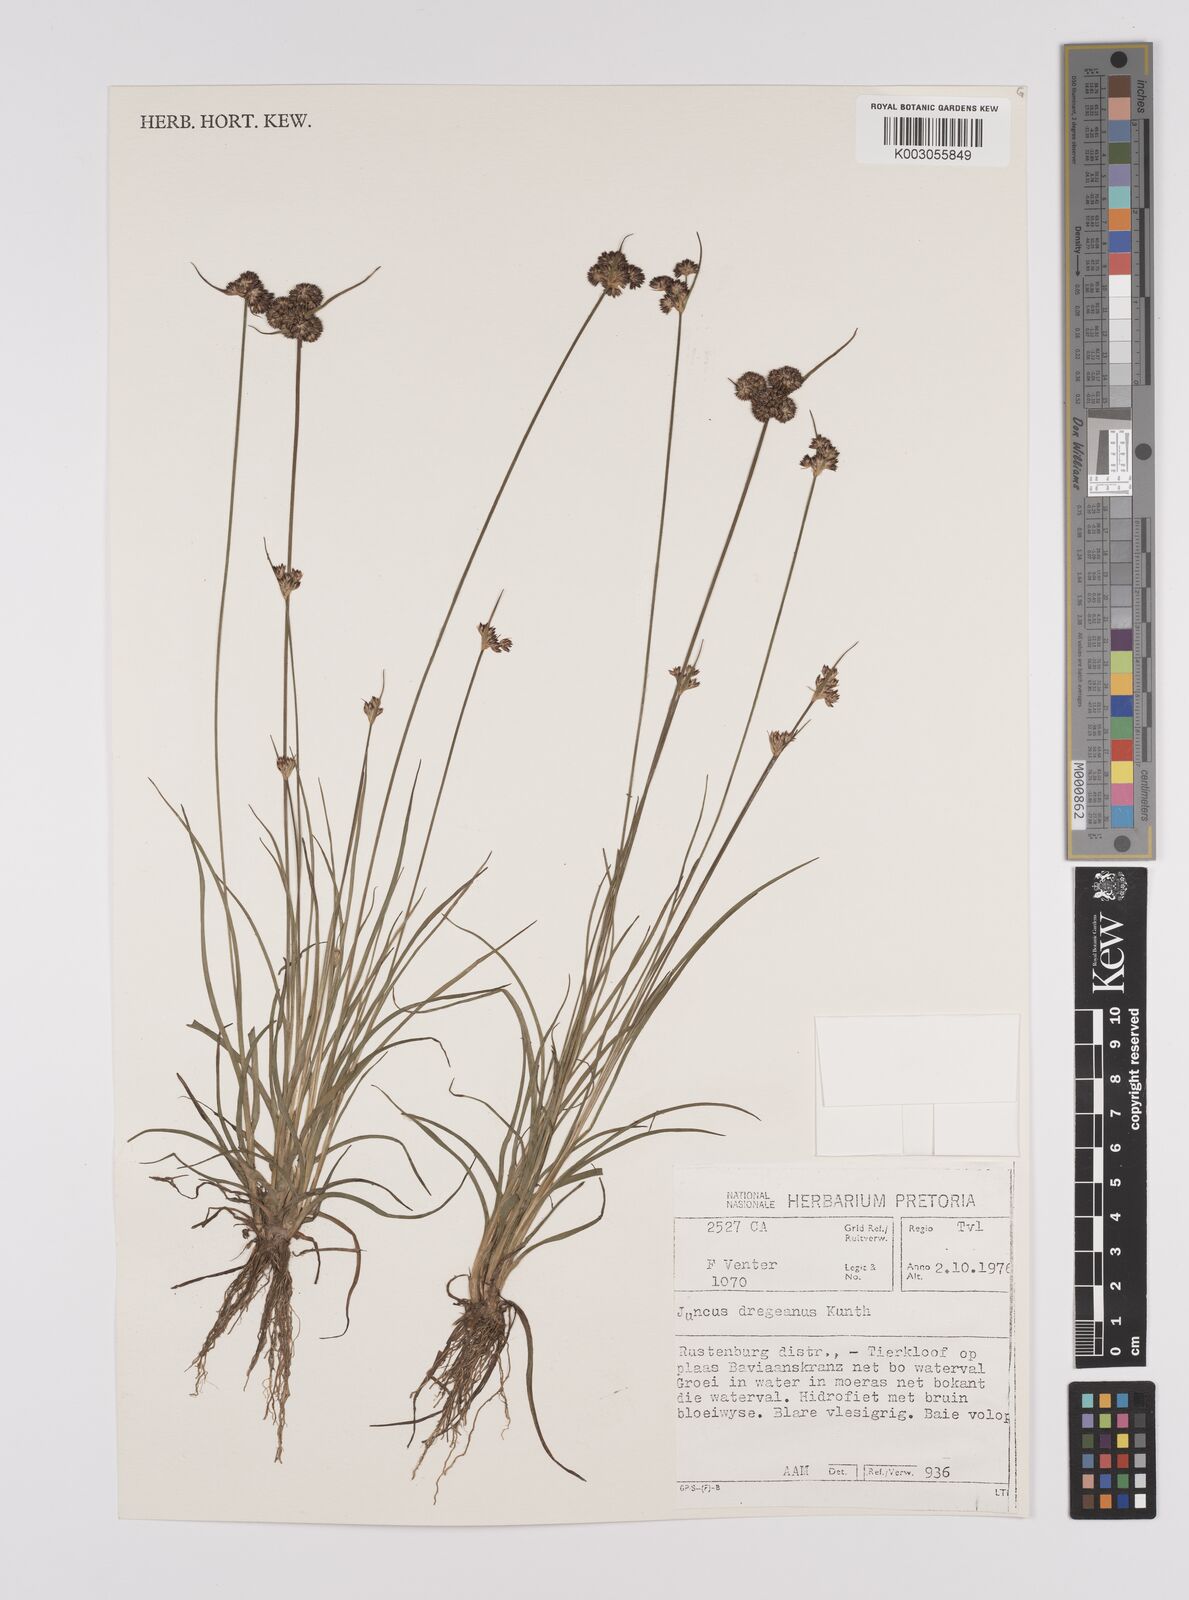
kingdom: Plantae
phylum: Tracheophyta
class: Liliopsida
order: Poales
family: Juncaceae
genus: Juncus
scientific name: Juncus dregeanus
